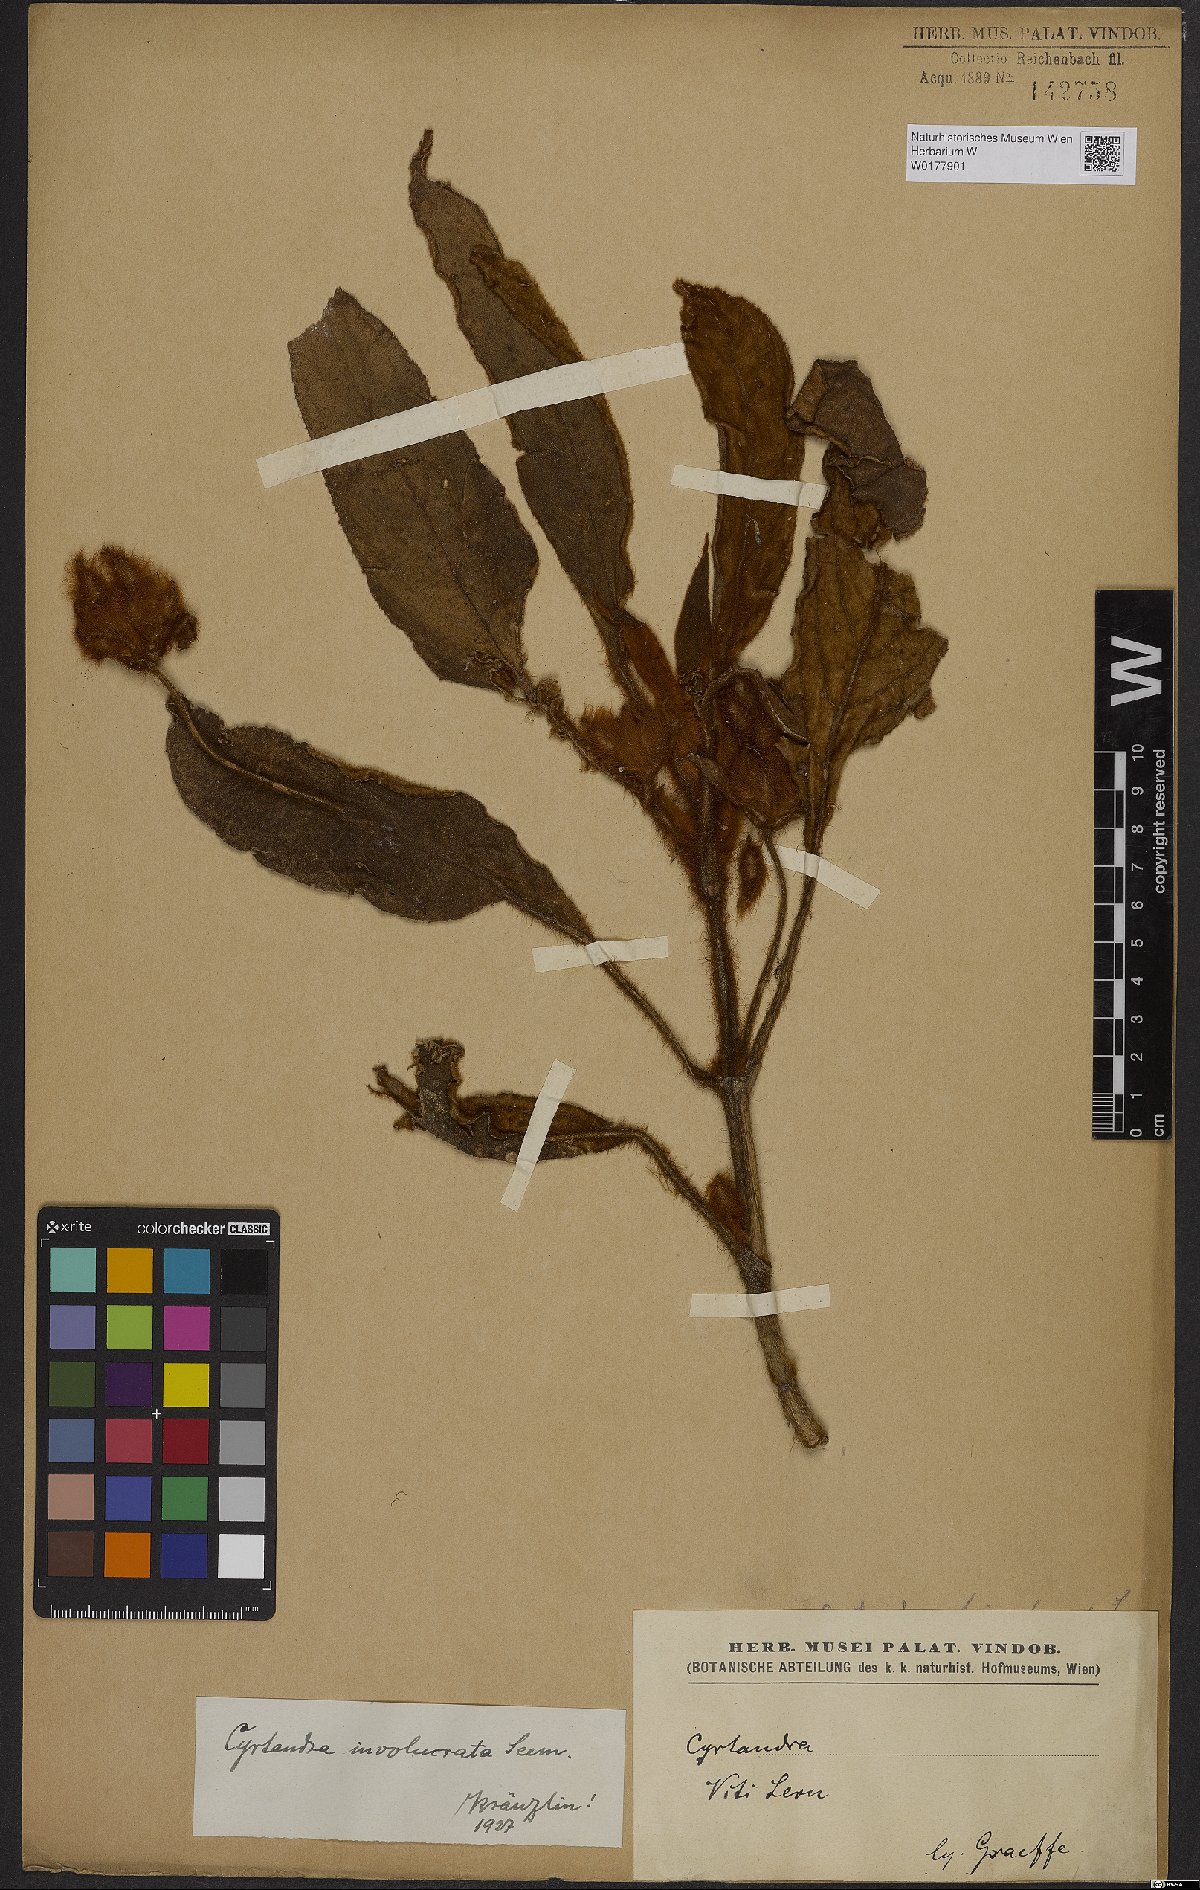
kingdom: Plantae
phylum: Tracheophyta
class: Magnoliopsida
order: Lamiales
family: Gesneriaceae
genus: Cyrtandra
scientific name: Cyrtandra involucrata
